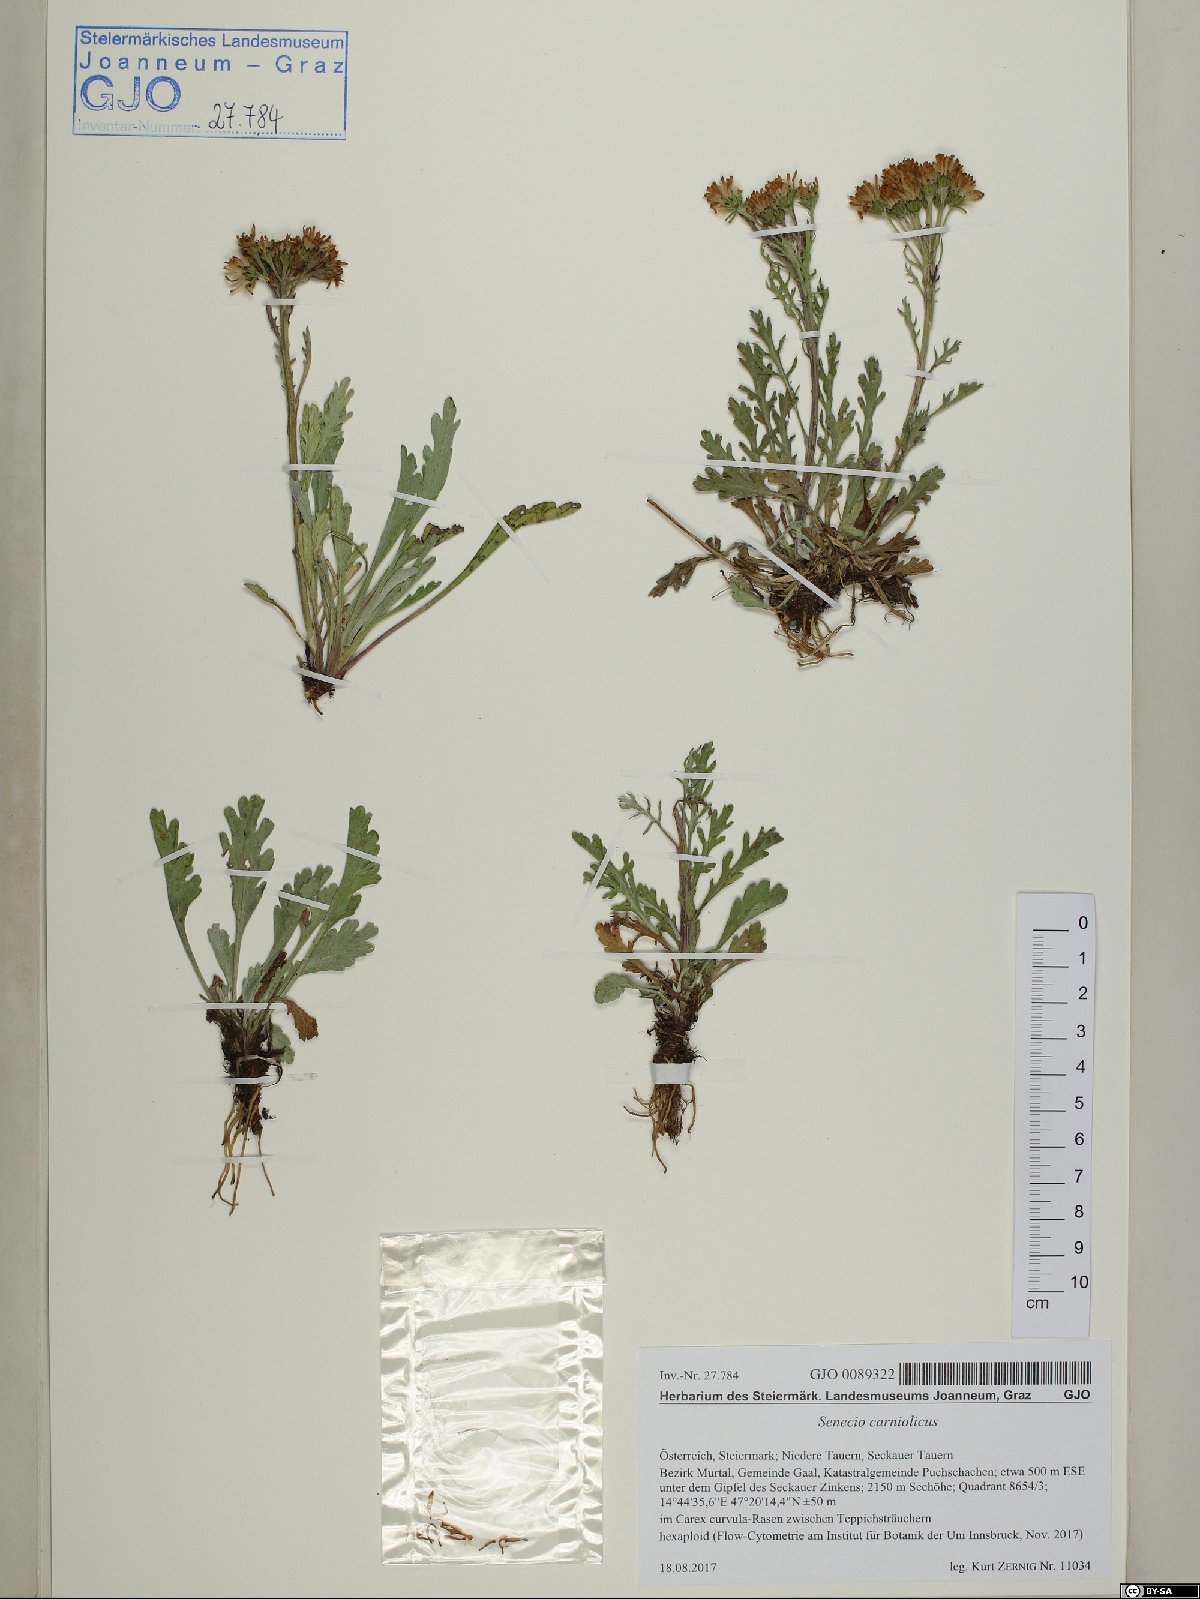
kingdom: Plantae
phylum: Tracheophyta
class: Magnoliopsida
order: Asterales
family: Asteraceae
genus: Jacobaea
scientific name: Jacobaea carniolica
